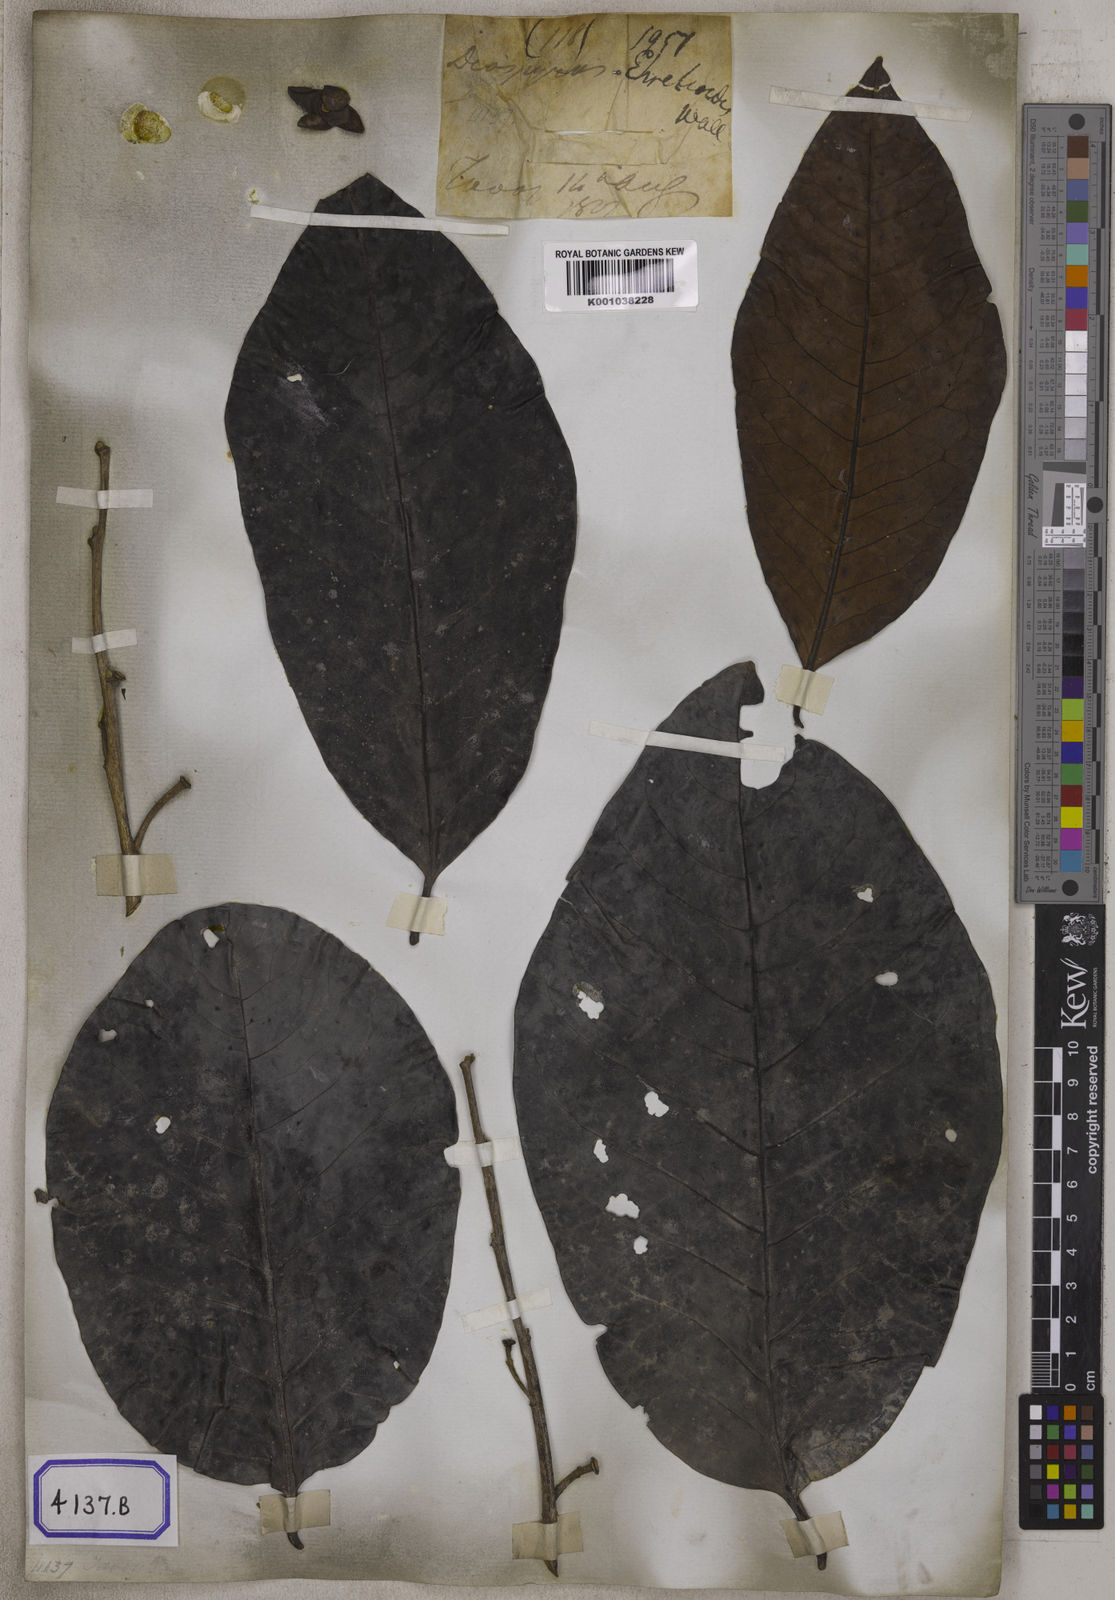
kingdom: Plantae
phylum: Tracheophyta
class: Magnoliopsida
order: Ericales
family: Ebenaceae
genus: Diospyros
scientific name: Diospyros
